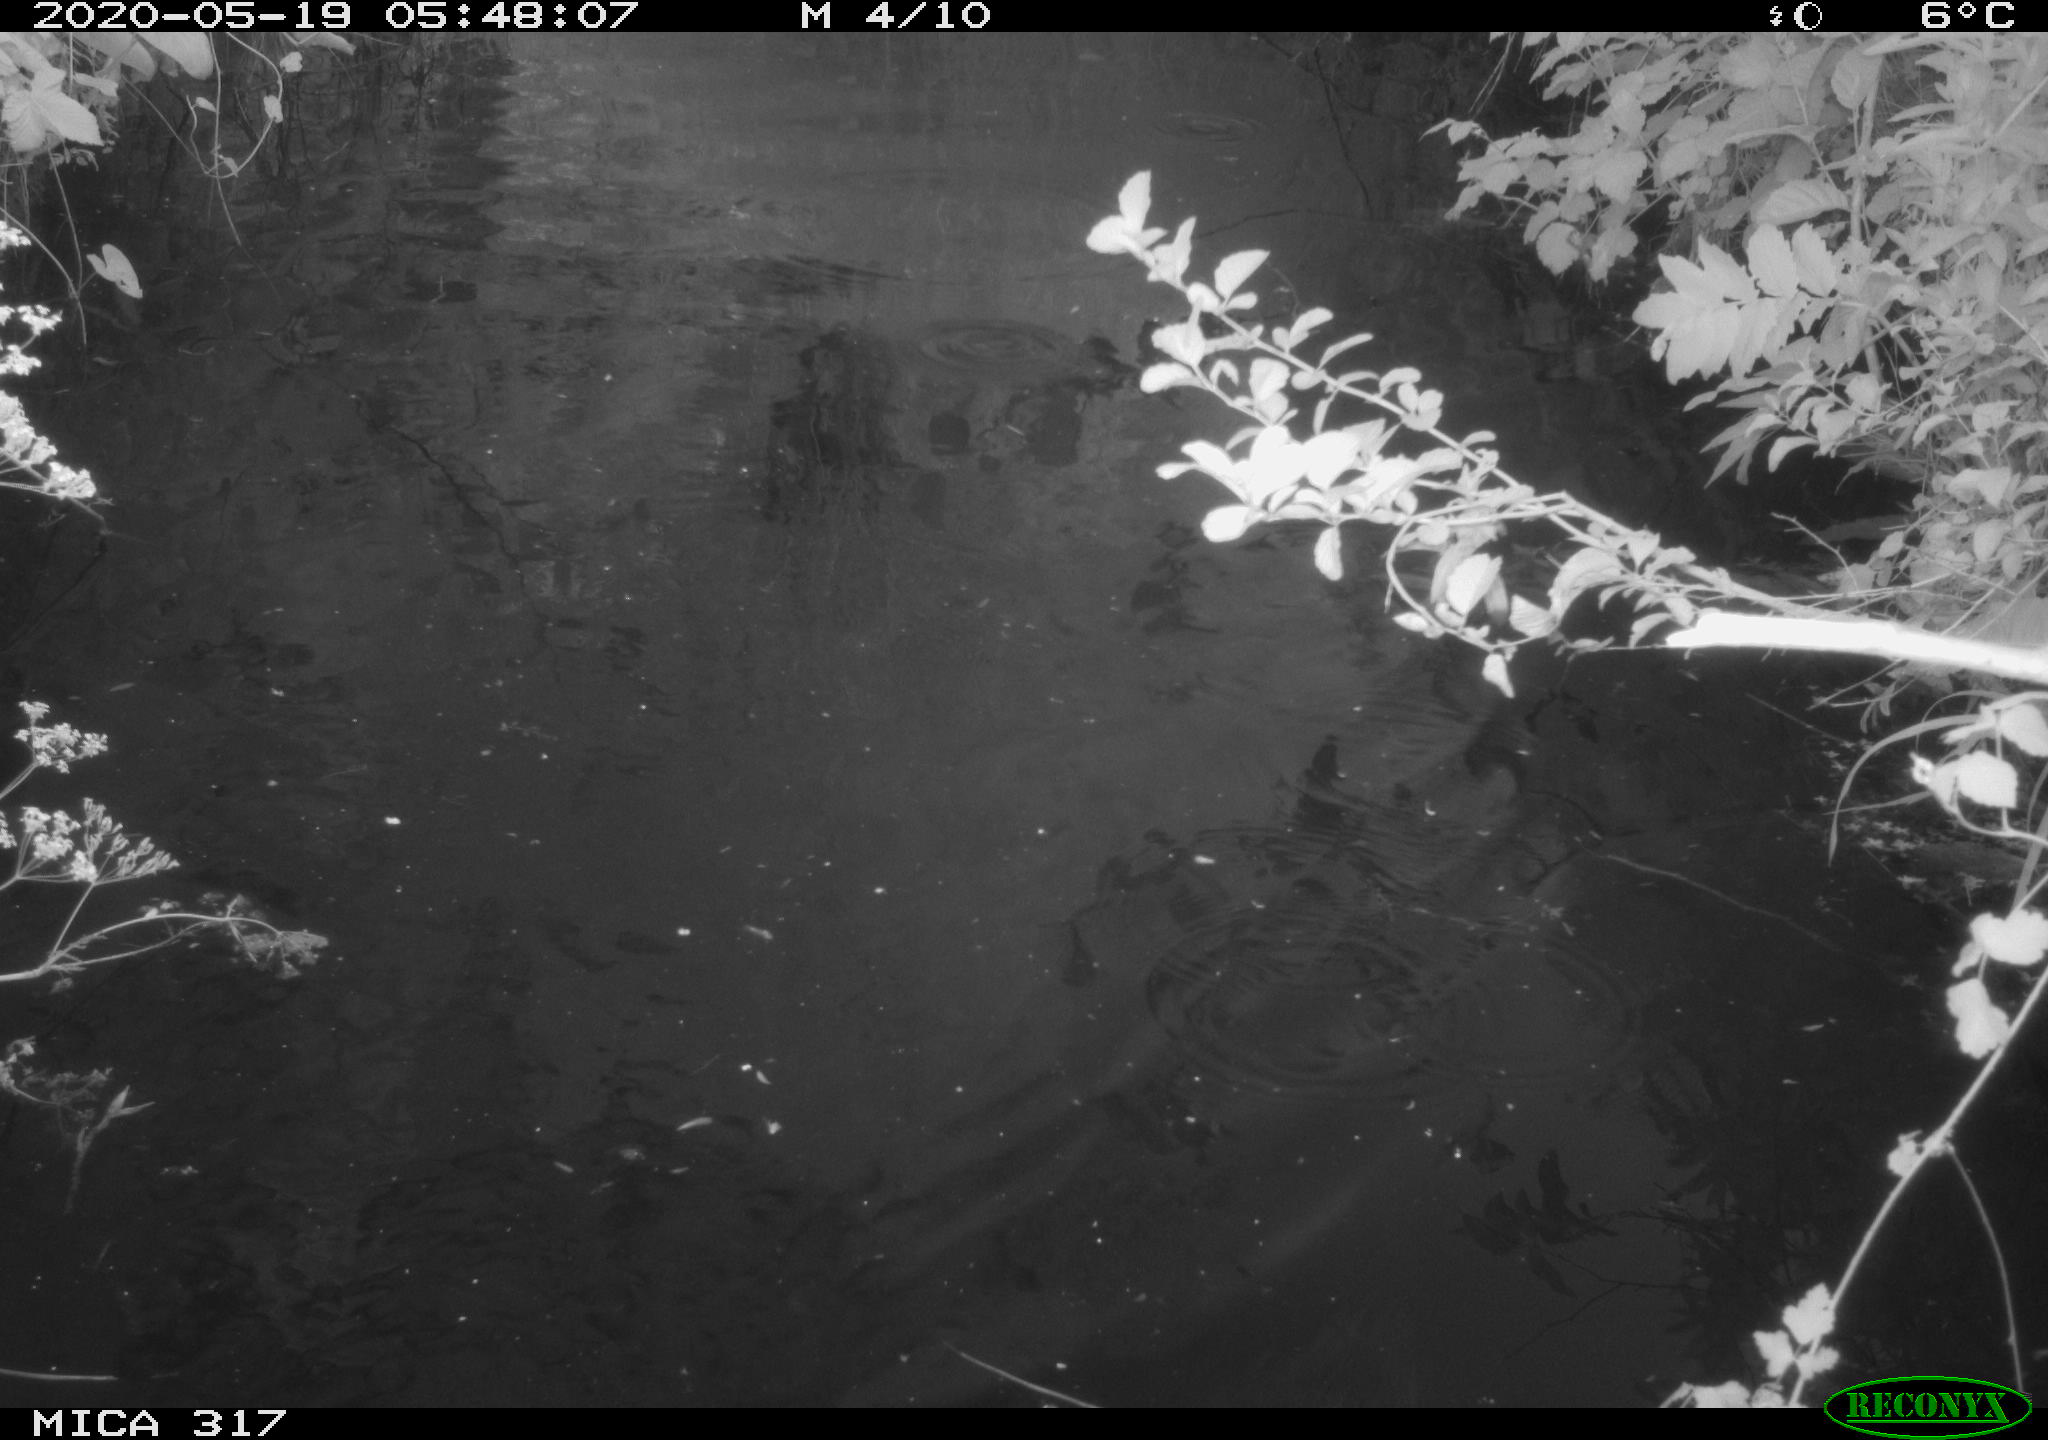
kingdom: Animalia
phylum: Chordata
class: Aves
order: Anseriformes
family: Anatidae
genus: Anas
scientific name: Anas platyrhynchos
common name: Mallard
